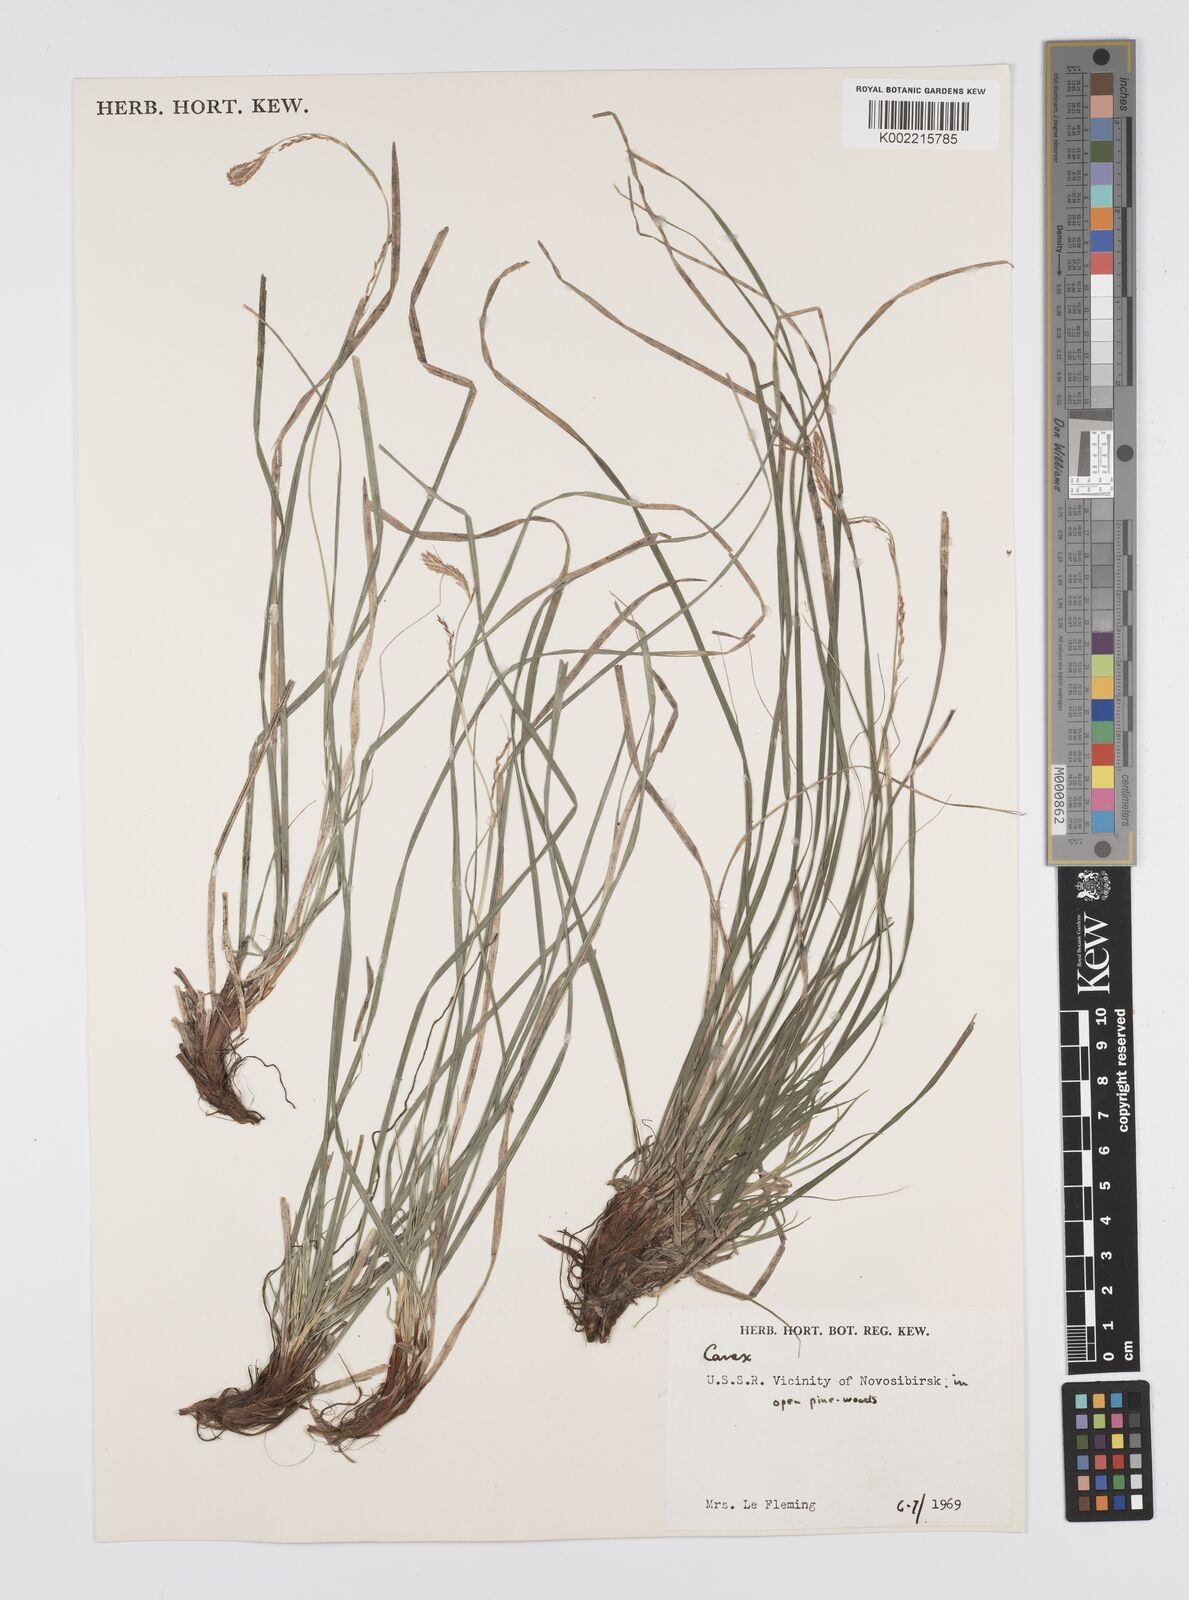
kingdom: Plantae
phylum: Tracheophyta
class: Liliopsida
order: Poales
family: Cyperaceae
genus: Carex
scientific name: Carex
